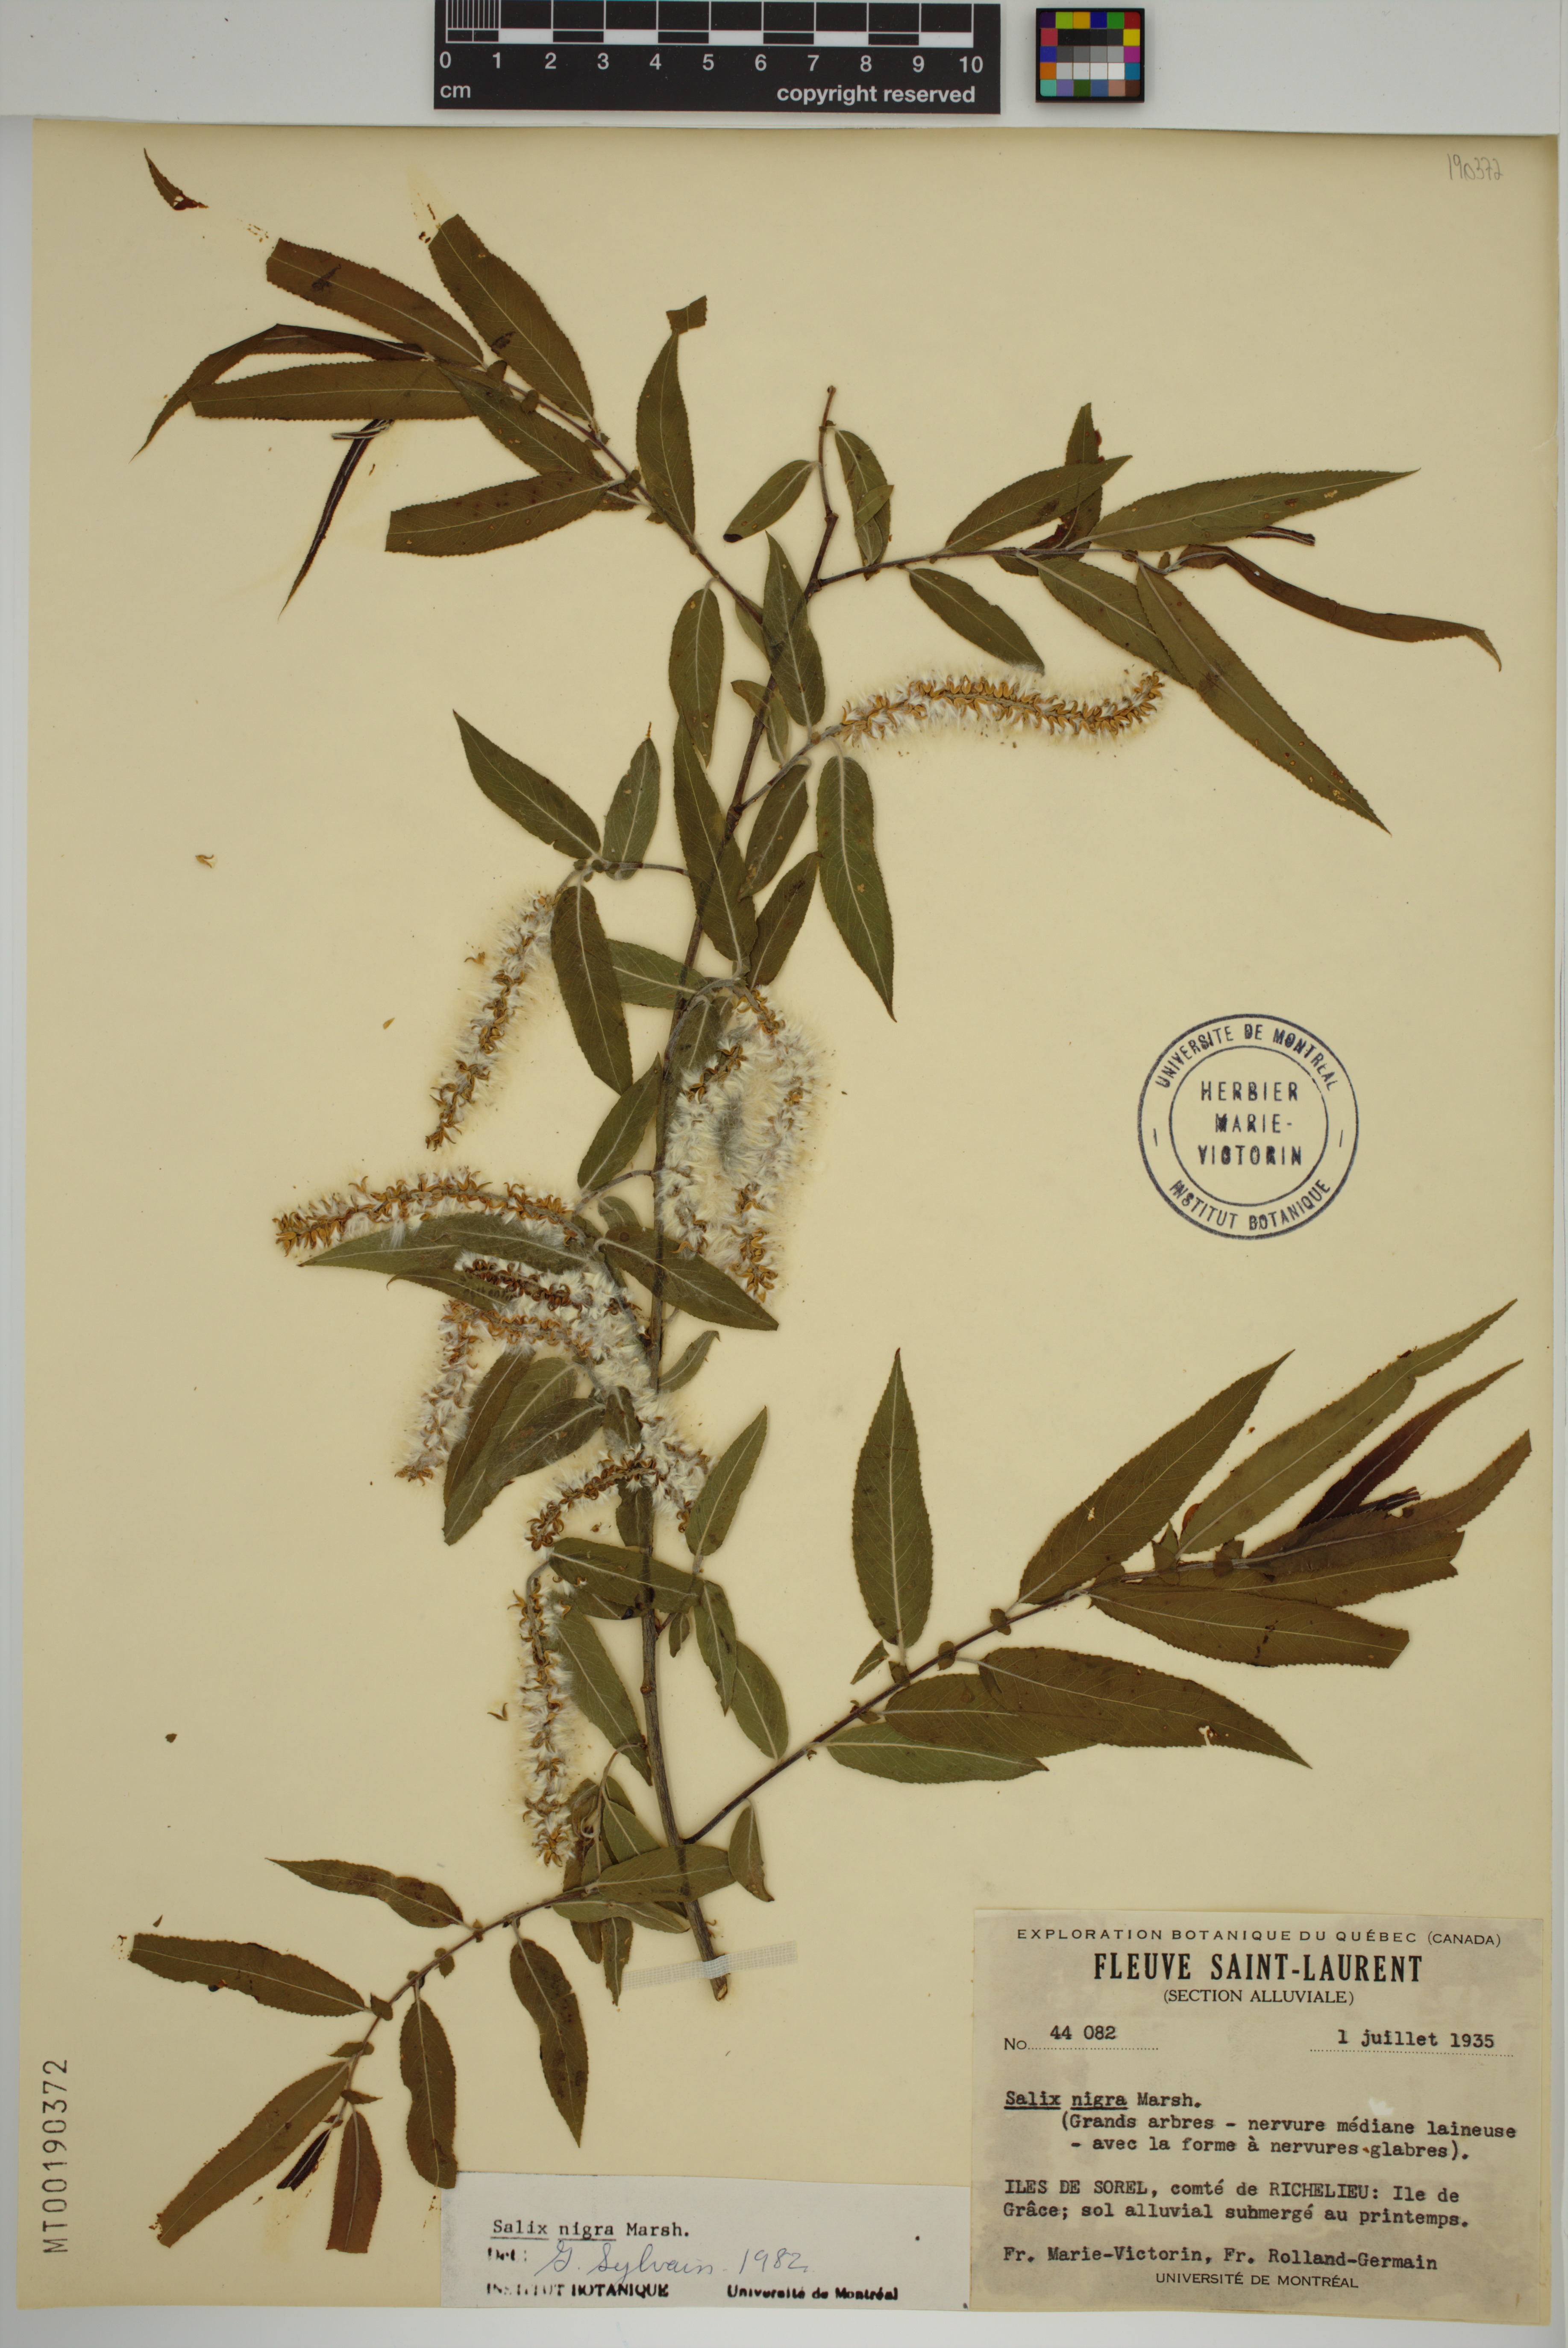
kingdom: Plantae
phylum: Tracheophyta
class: Magnoliopsida
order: Malpighiales
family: Salicaceae
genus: Salix
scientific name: Salix nigra
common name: Black willow
